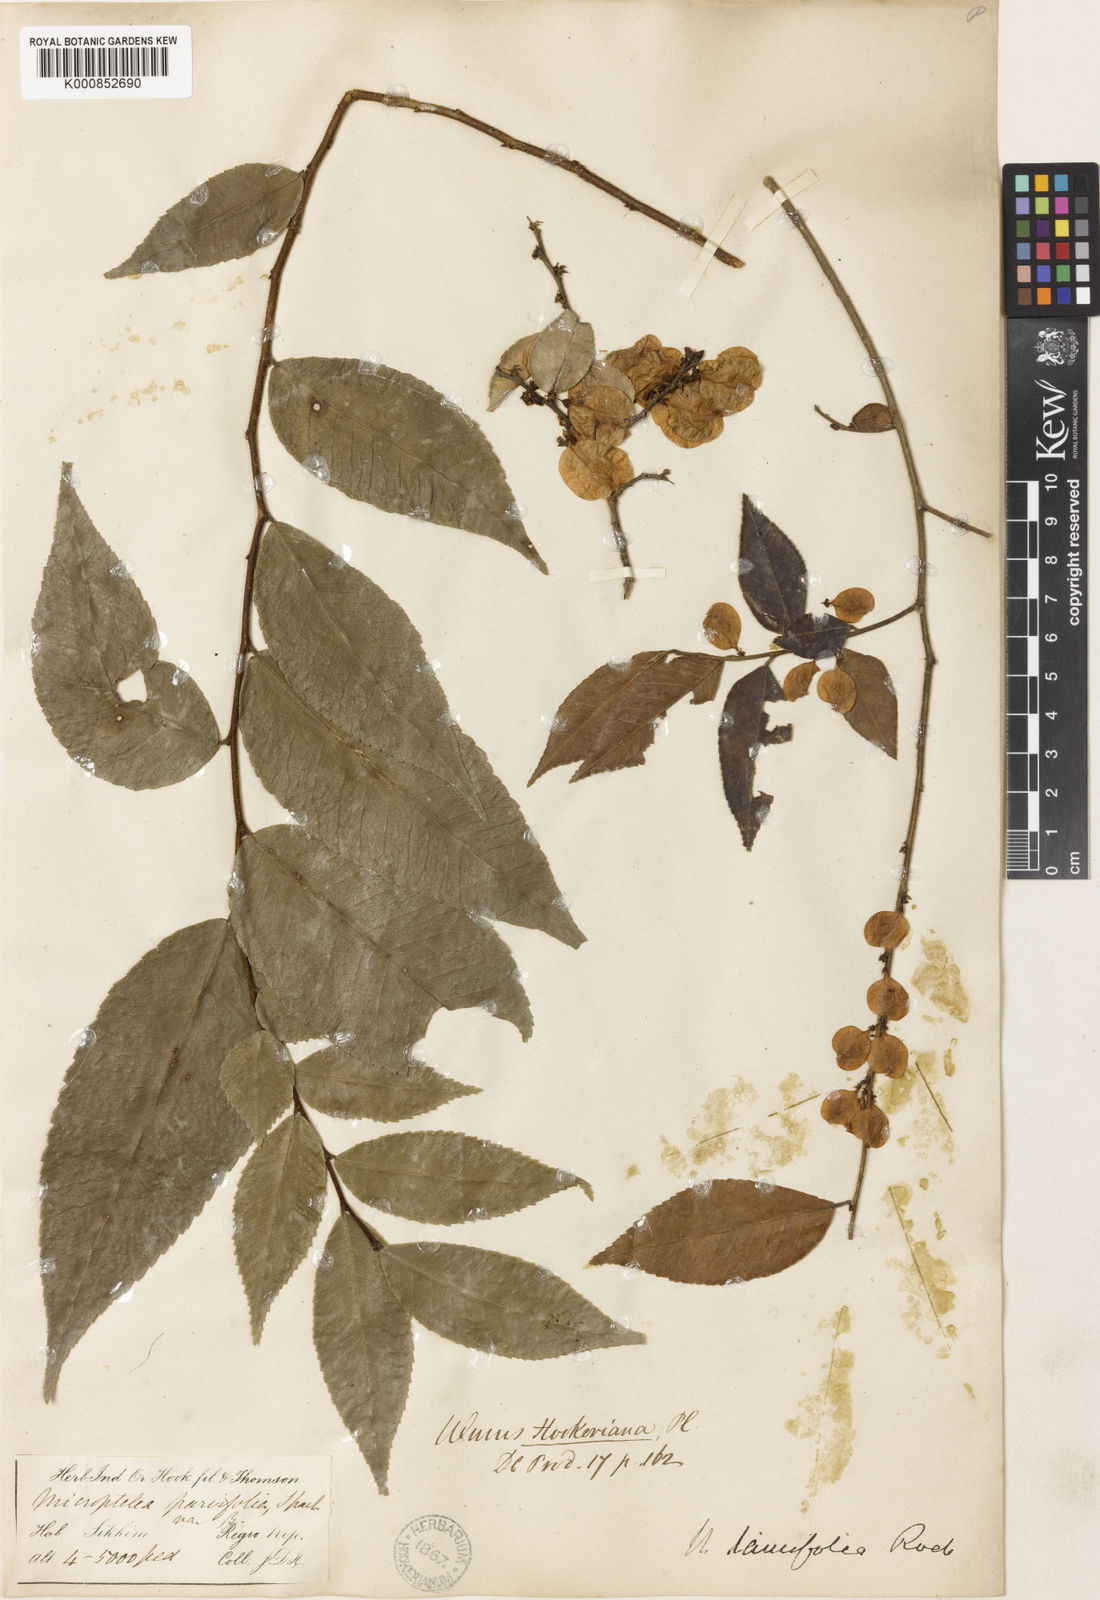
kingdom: Plantae
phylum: Tracheophyta
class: Magnoliopsida
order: Rosales
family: Ulmaceae
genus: Ulmus
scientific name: Ulmus
